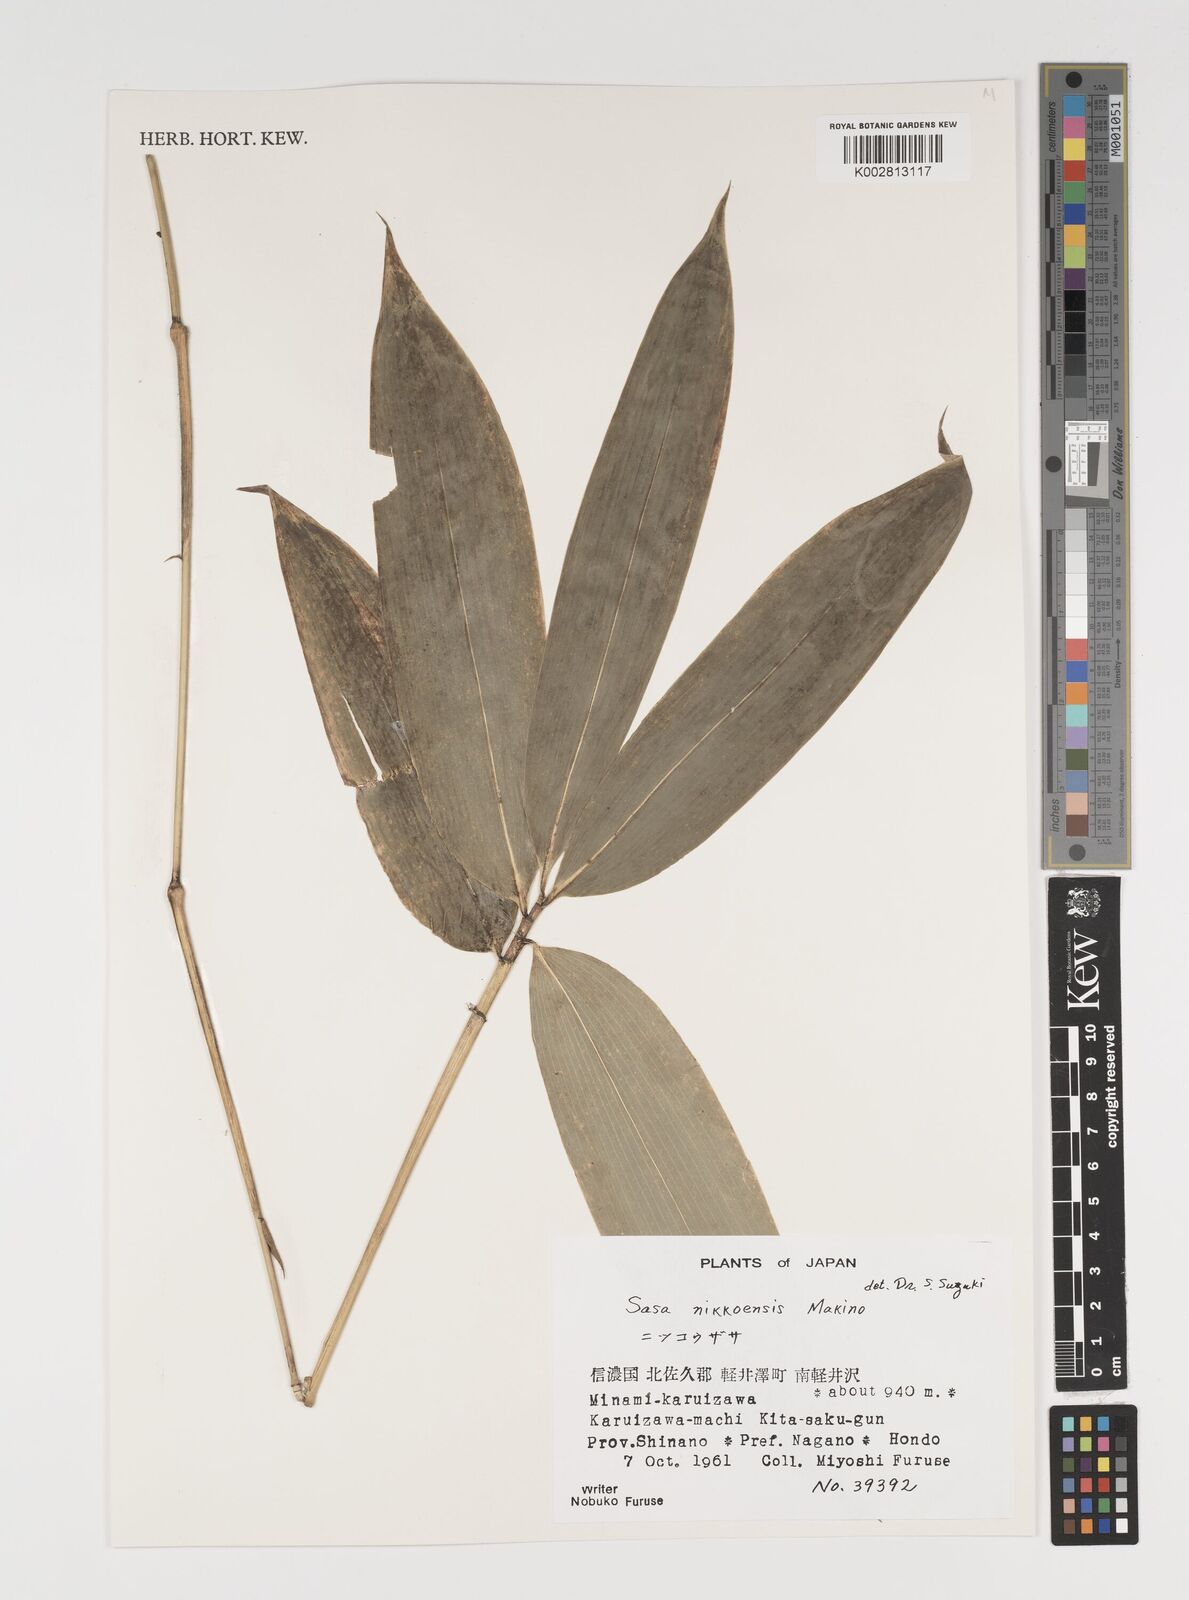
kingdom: Plantae
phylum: Tracheophyta
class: Liliopsida
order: Poales
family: Poaceae
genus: Sasa
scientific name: Sasa chartacea
